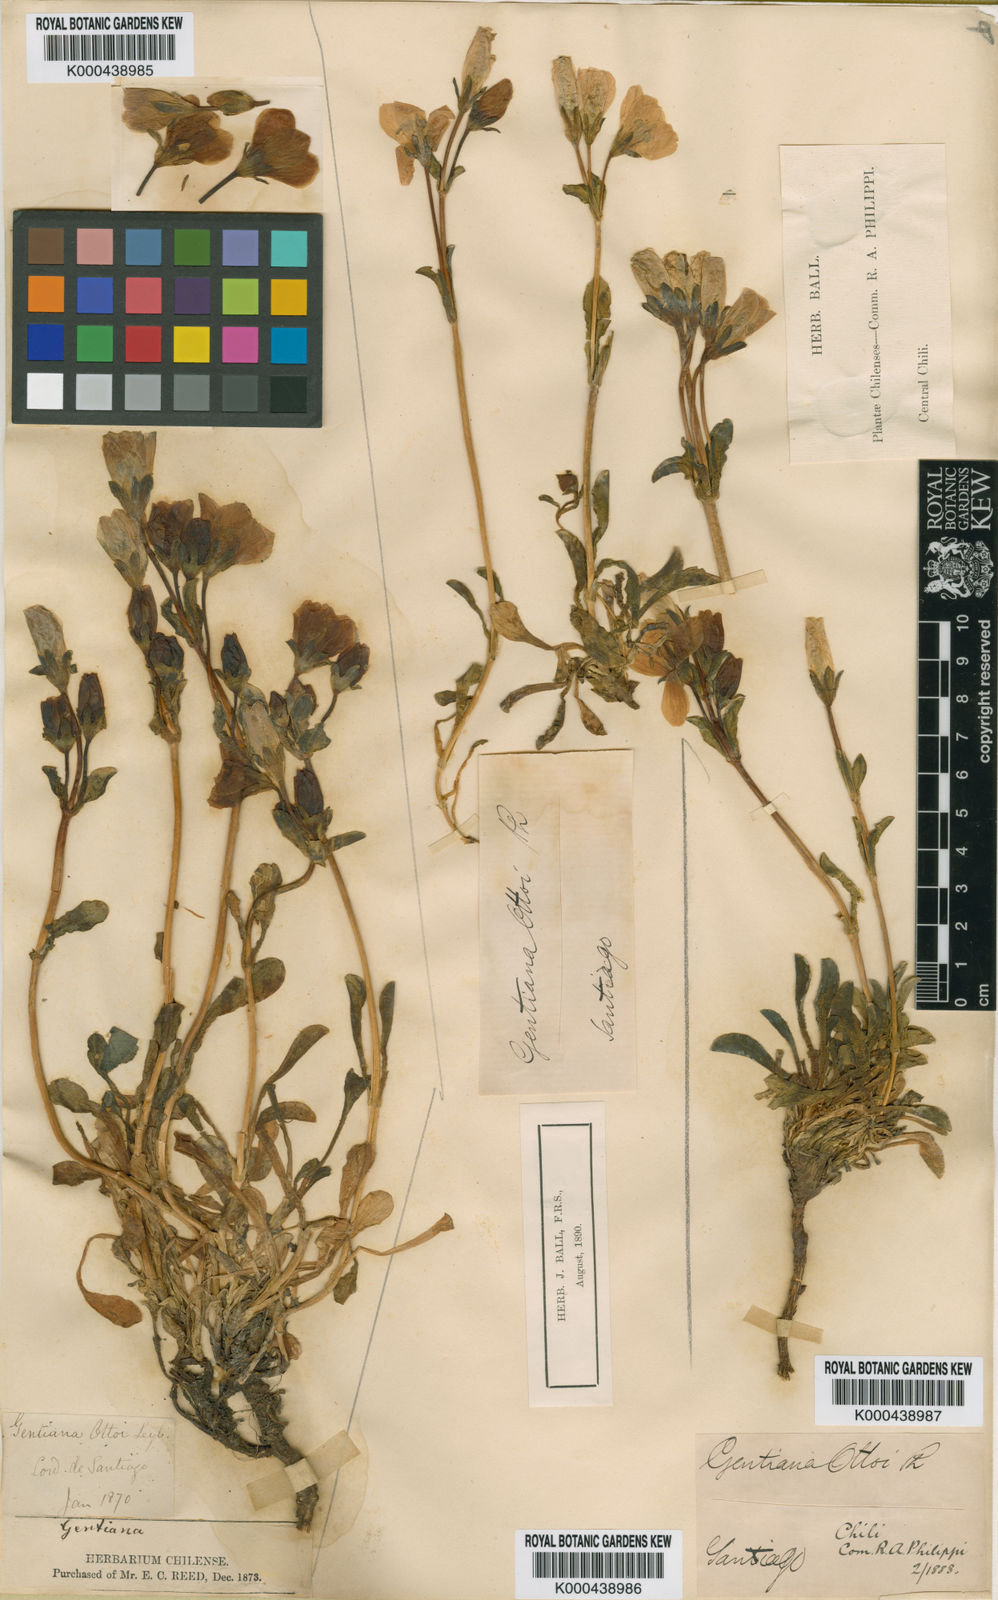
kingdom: Plantae
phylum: Tracheophyta
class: Magnoliopsida
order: Gentianales
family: Gentianaceae
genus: Gentianella
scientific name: Gentianella
